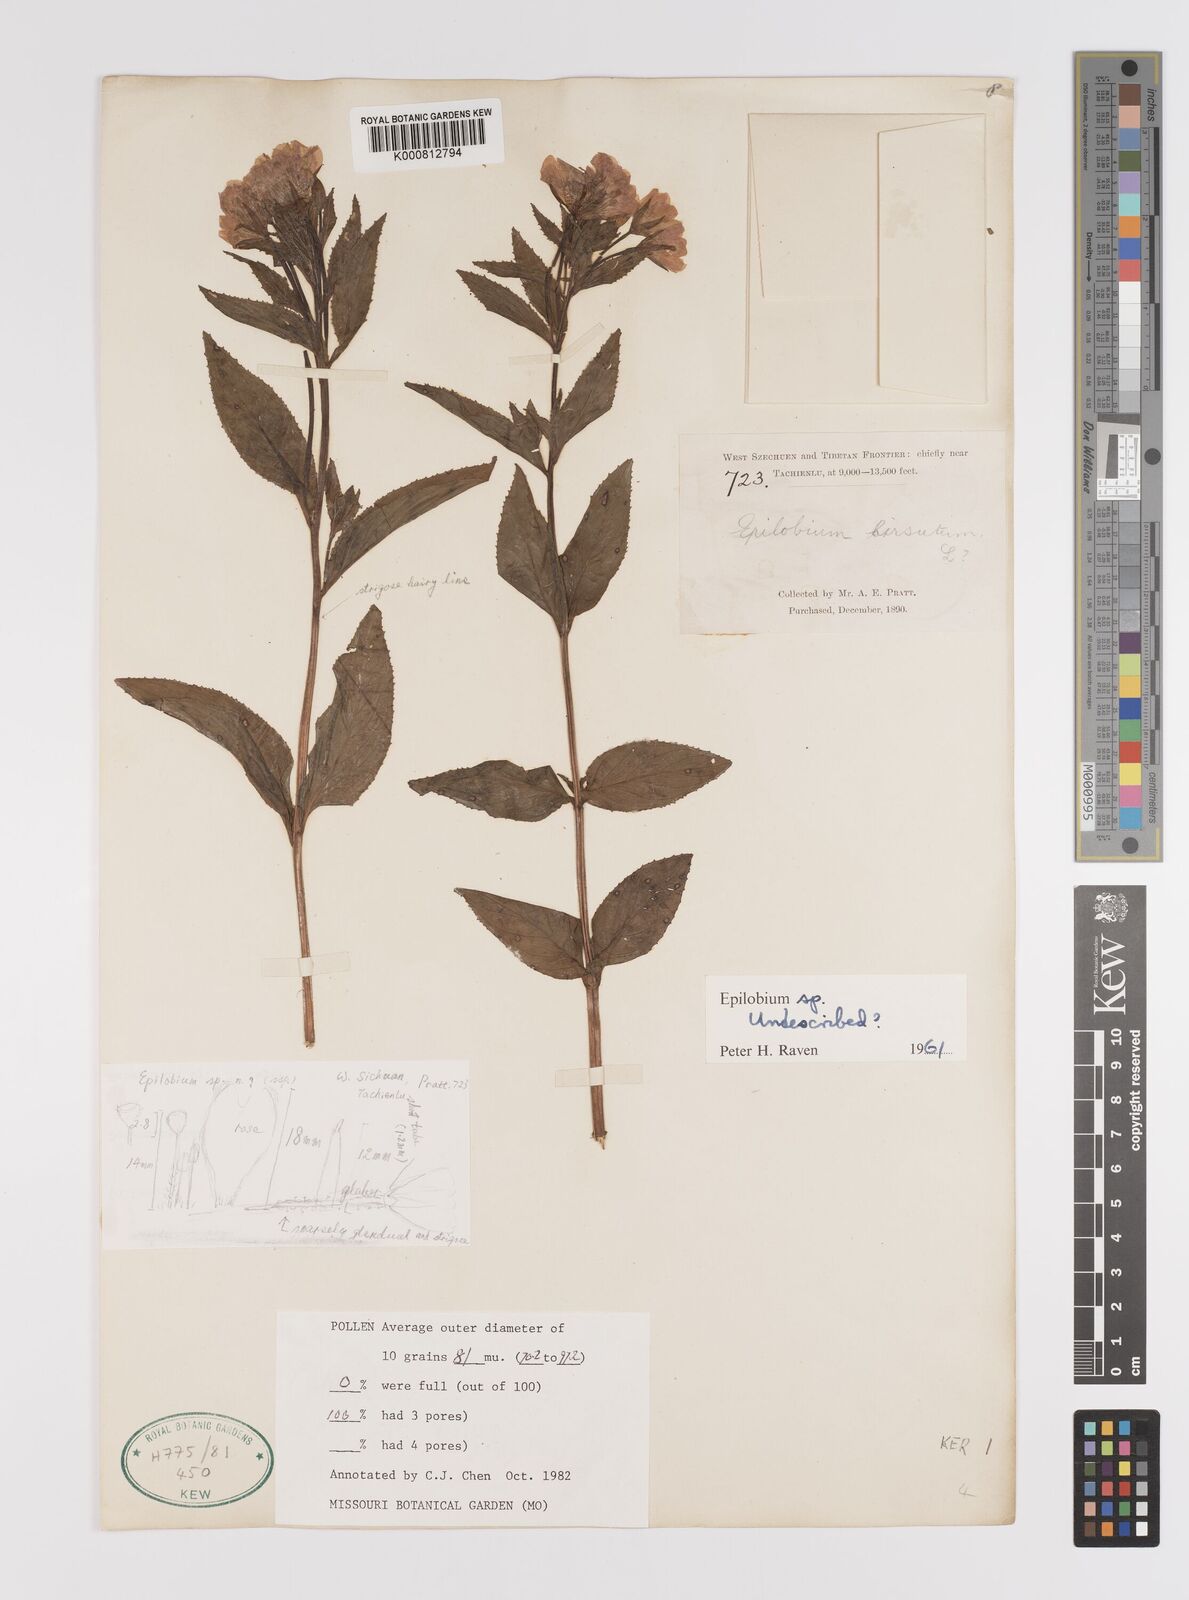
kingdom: Plantae
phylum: Tracheophyta
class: Magnoliopsida
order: Myrtales
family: Onagraceae
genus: Epilobium
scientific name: Epilobium
